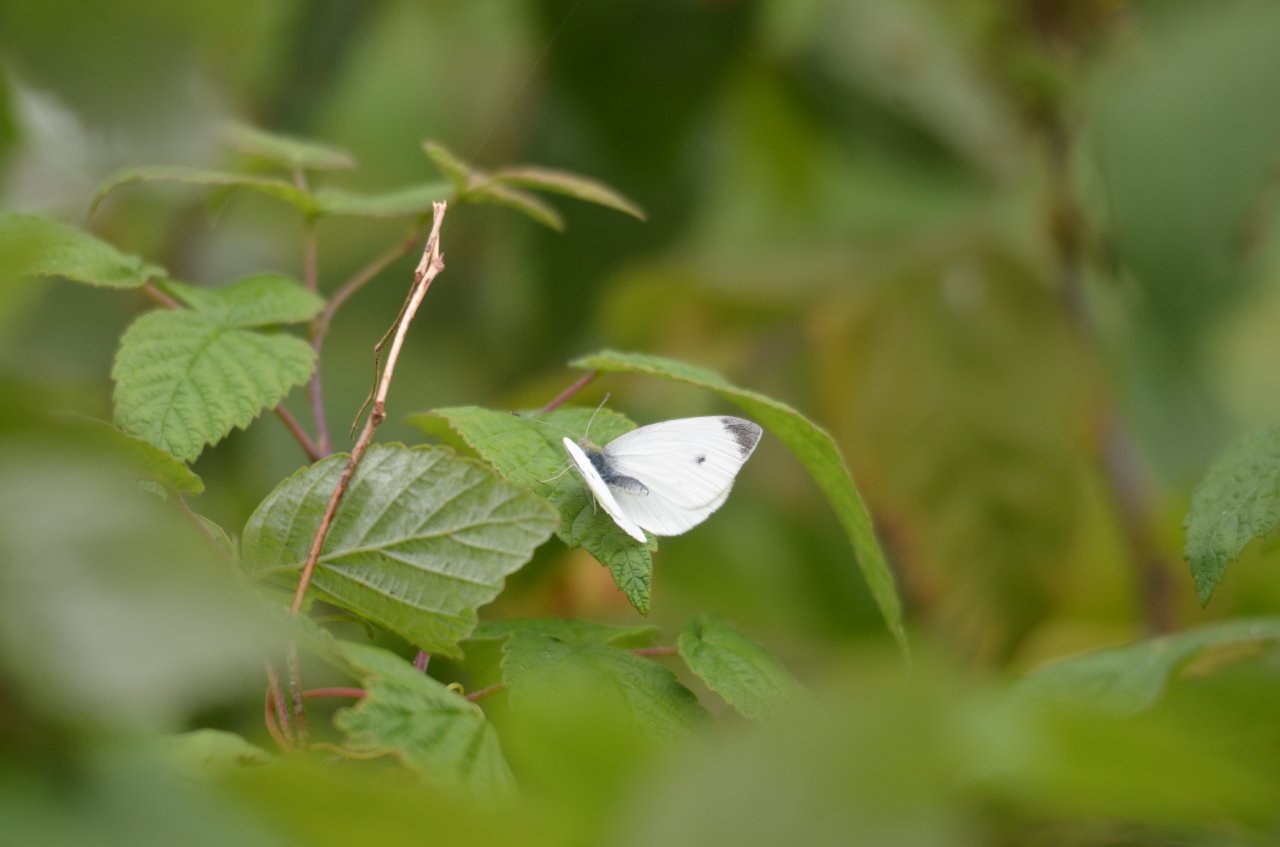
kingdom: Animalia
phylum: Arthropoda
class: Insecta
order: Lepidoptera
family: Pieridae
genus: Pieris
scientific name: Pieris rapae
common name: Cabbage White
